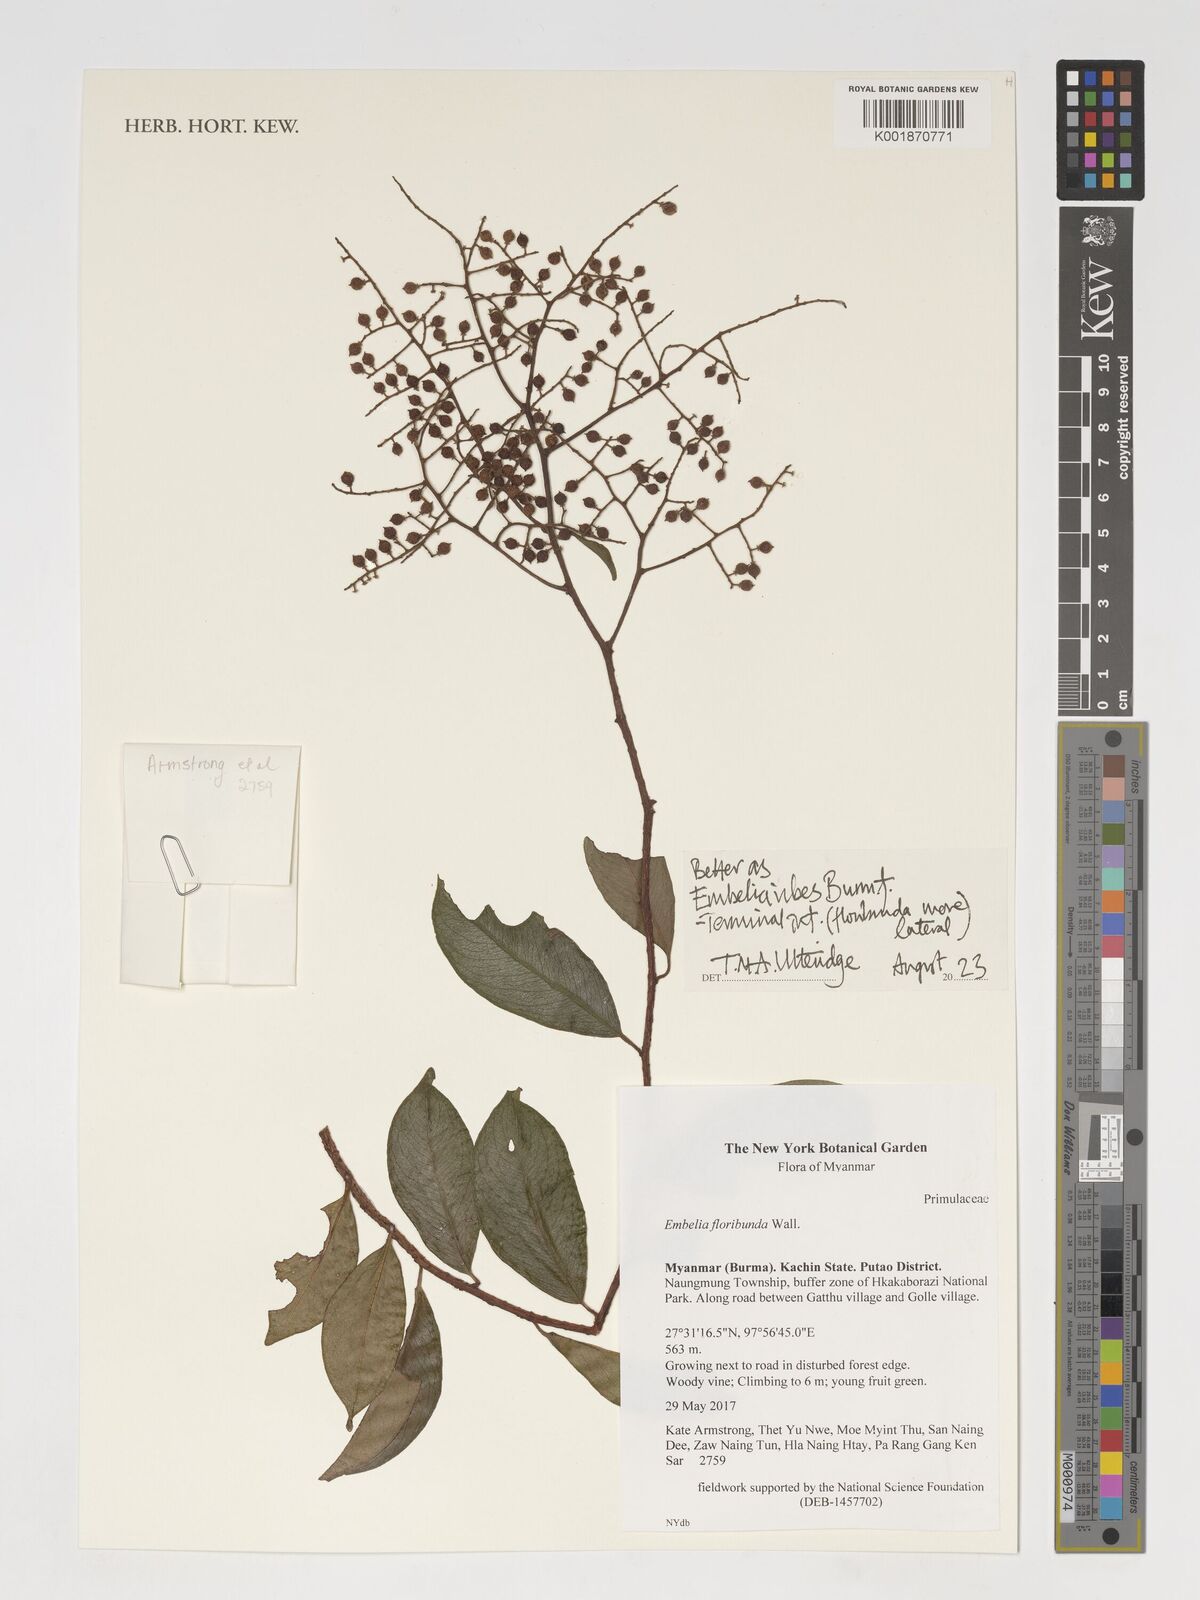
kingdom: Plantae
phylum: Tracheophyta
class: Magnoliopsida
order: Ericales
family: Primulaceae
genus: Embelia
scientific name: Embelia ribes
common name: Vidanga
